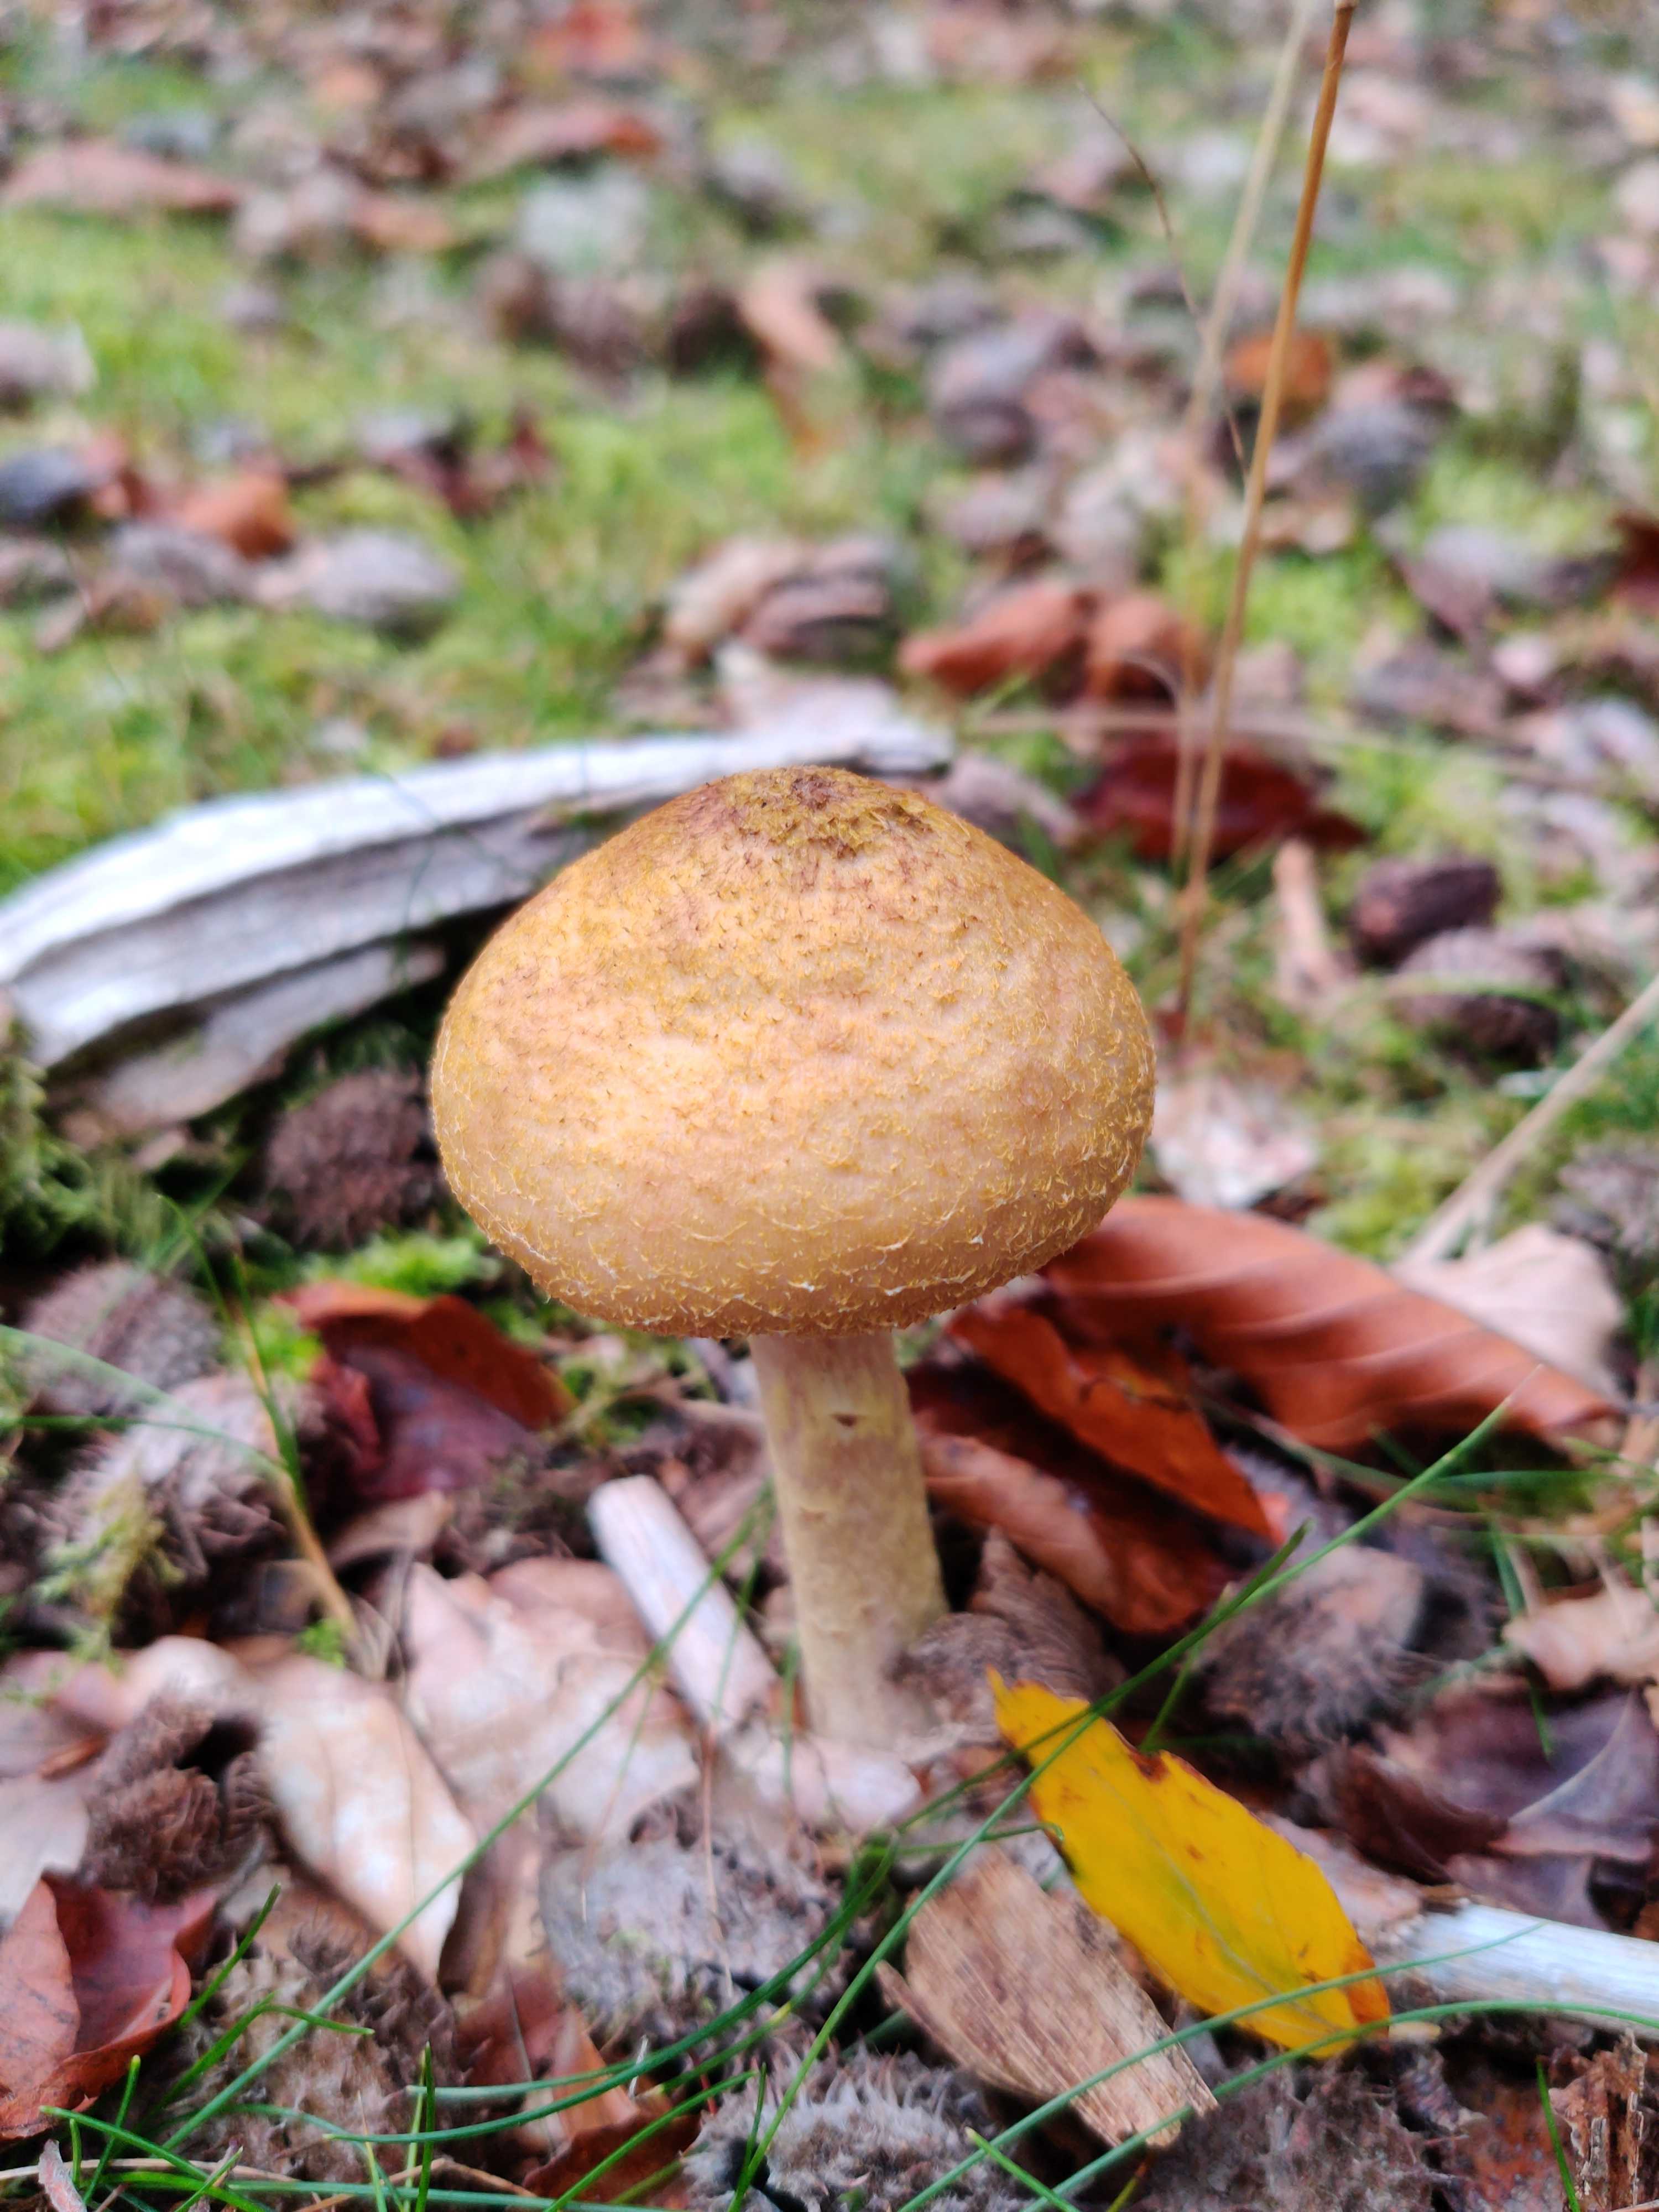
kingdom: Fungi
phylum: Basidiomycota
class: Agaricomycetes
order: Agaricales
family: Physalacriaceae
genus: Armillaria
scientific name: Armillaria lutea
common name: køllestokket honningsvamp
